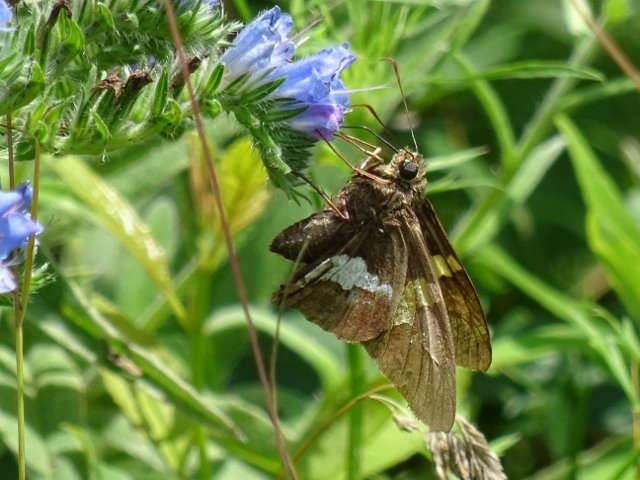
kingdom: Animalia
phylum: Arthropoda
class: Insecta
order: Lepidoptera
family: Hesperiidae
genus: Epargyreus
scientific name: Epargyreus clarus
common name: Silver-spotted Skipper
